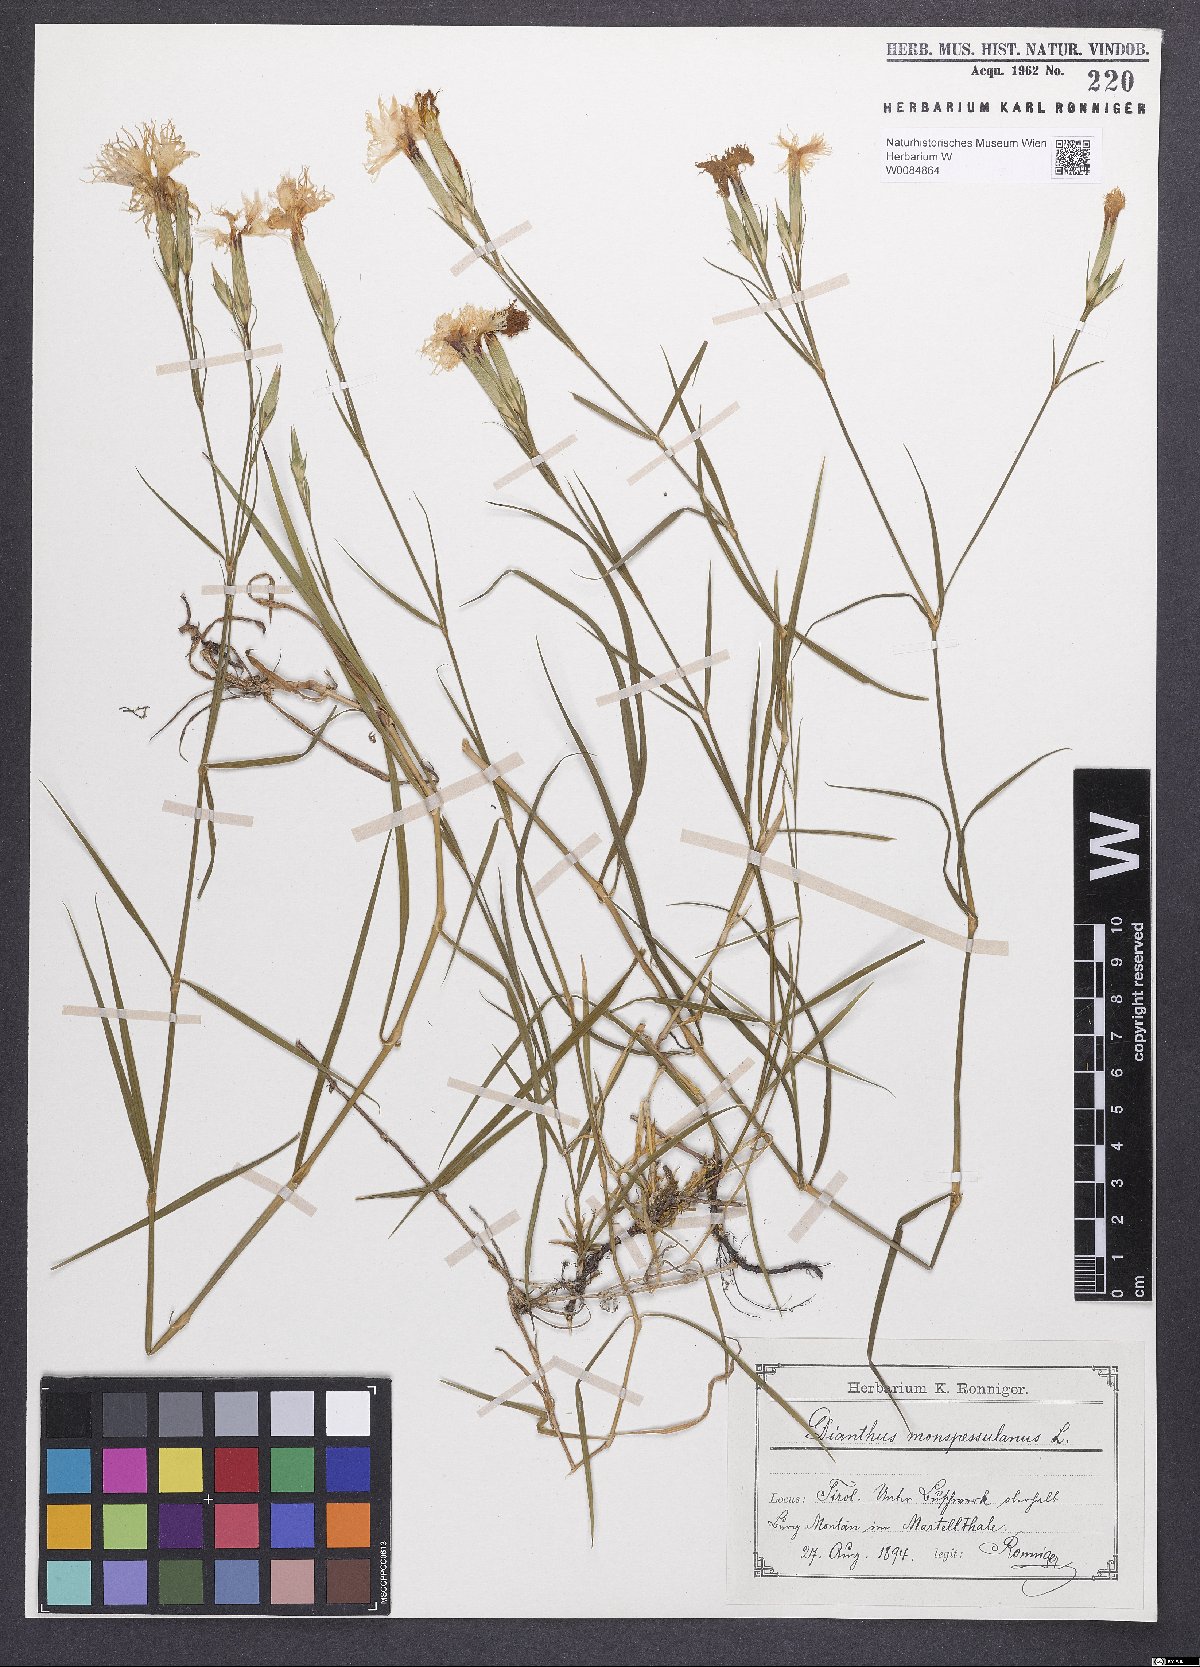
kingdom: Plantae
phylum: Tracheophyta
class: Magnoliopsida
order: Caryophyllales
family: Caryophyllaceae
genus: Dianthus
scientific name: Dianthus hyssopifolius
